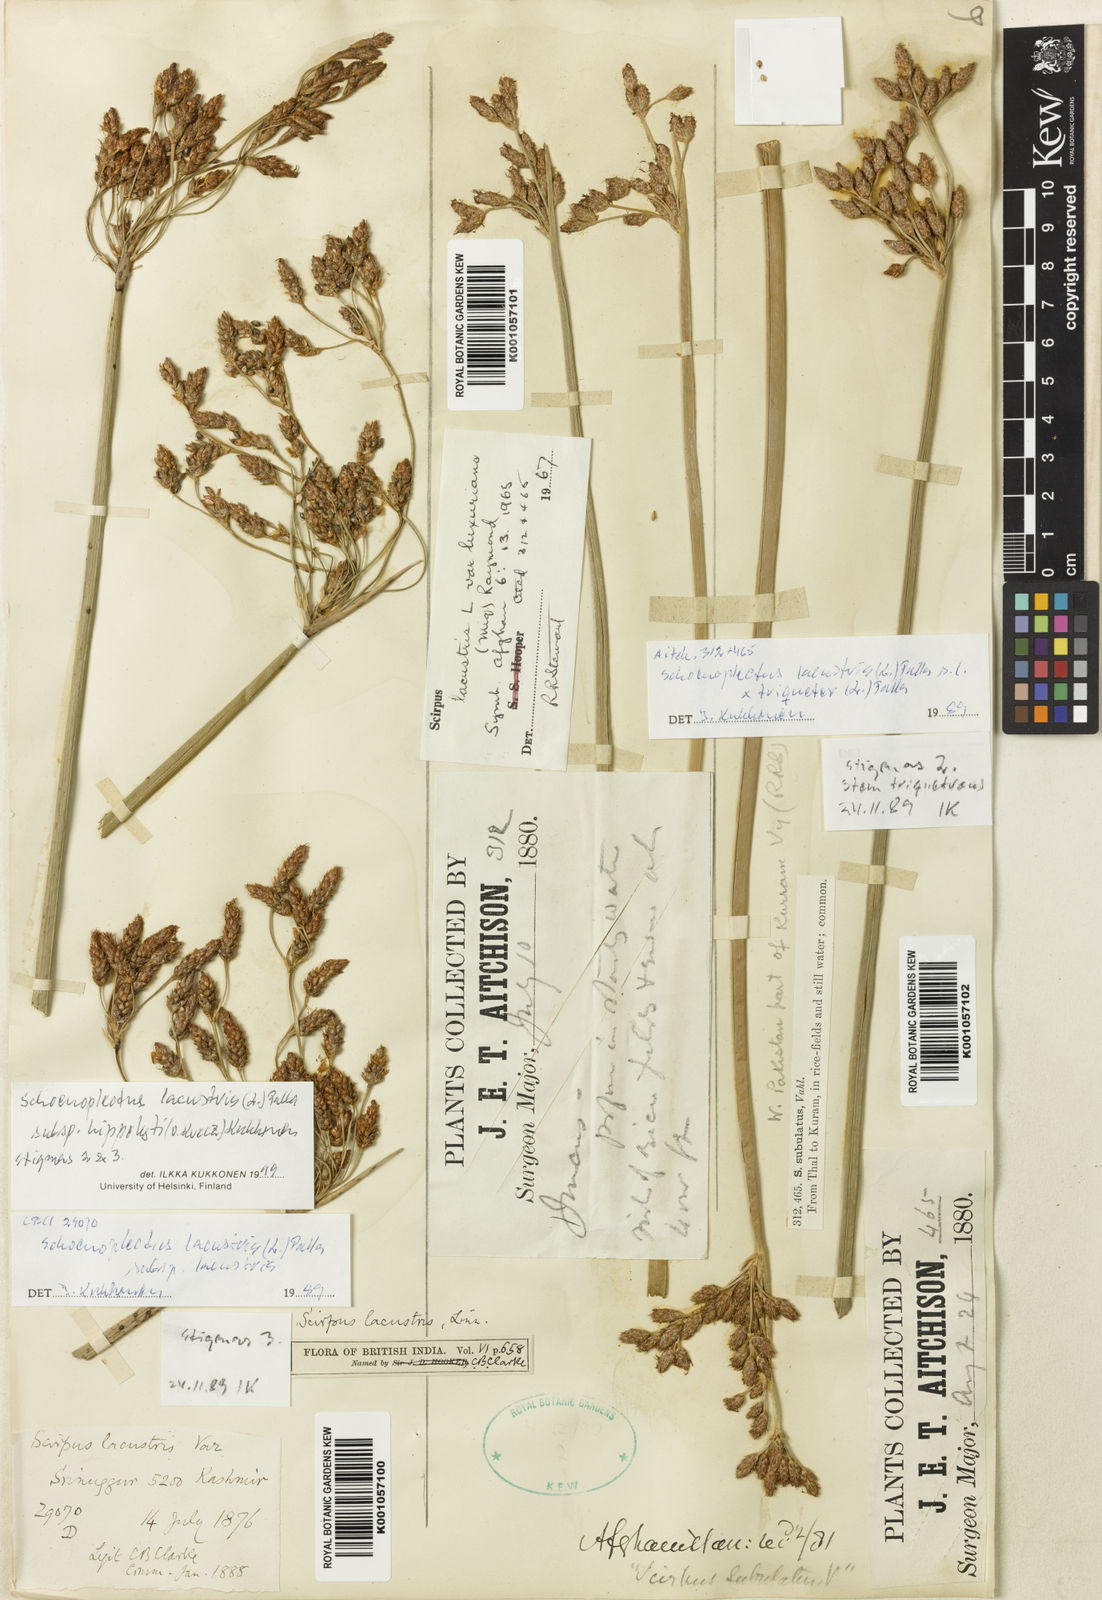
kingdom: Plantae
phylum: Tracheophyta
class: Liliopsida
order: Poales
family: Cyperaceae
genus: Schoenoplectus
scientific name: Schoenoplectus lacustris
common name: Common club-rush
